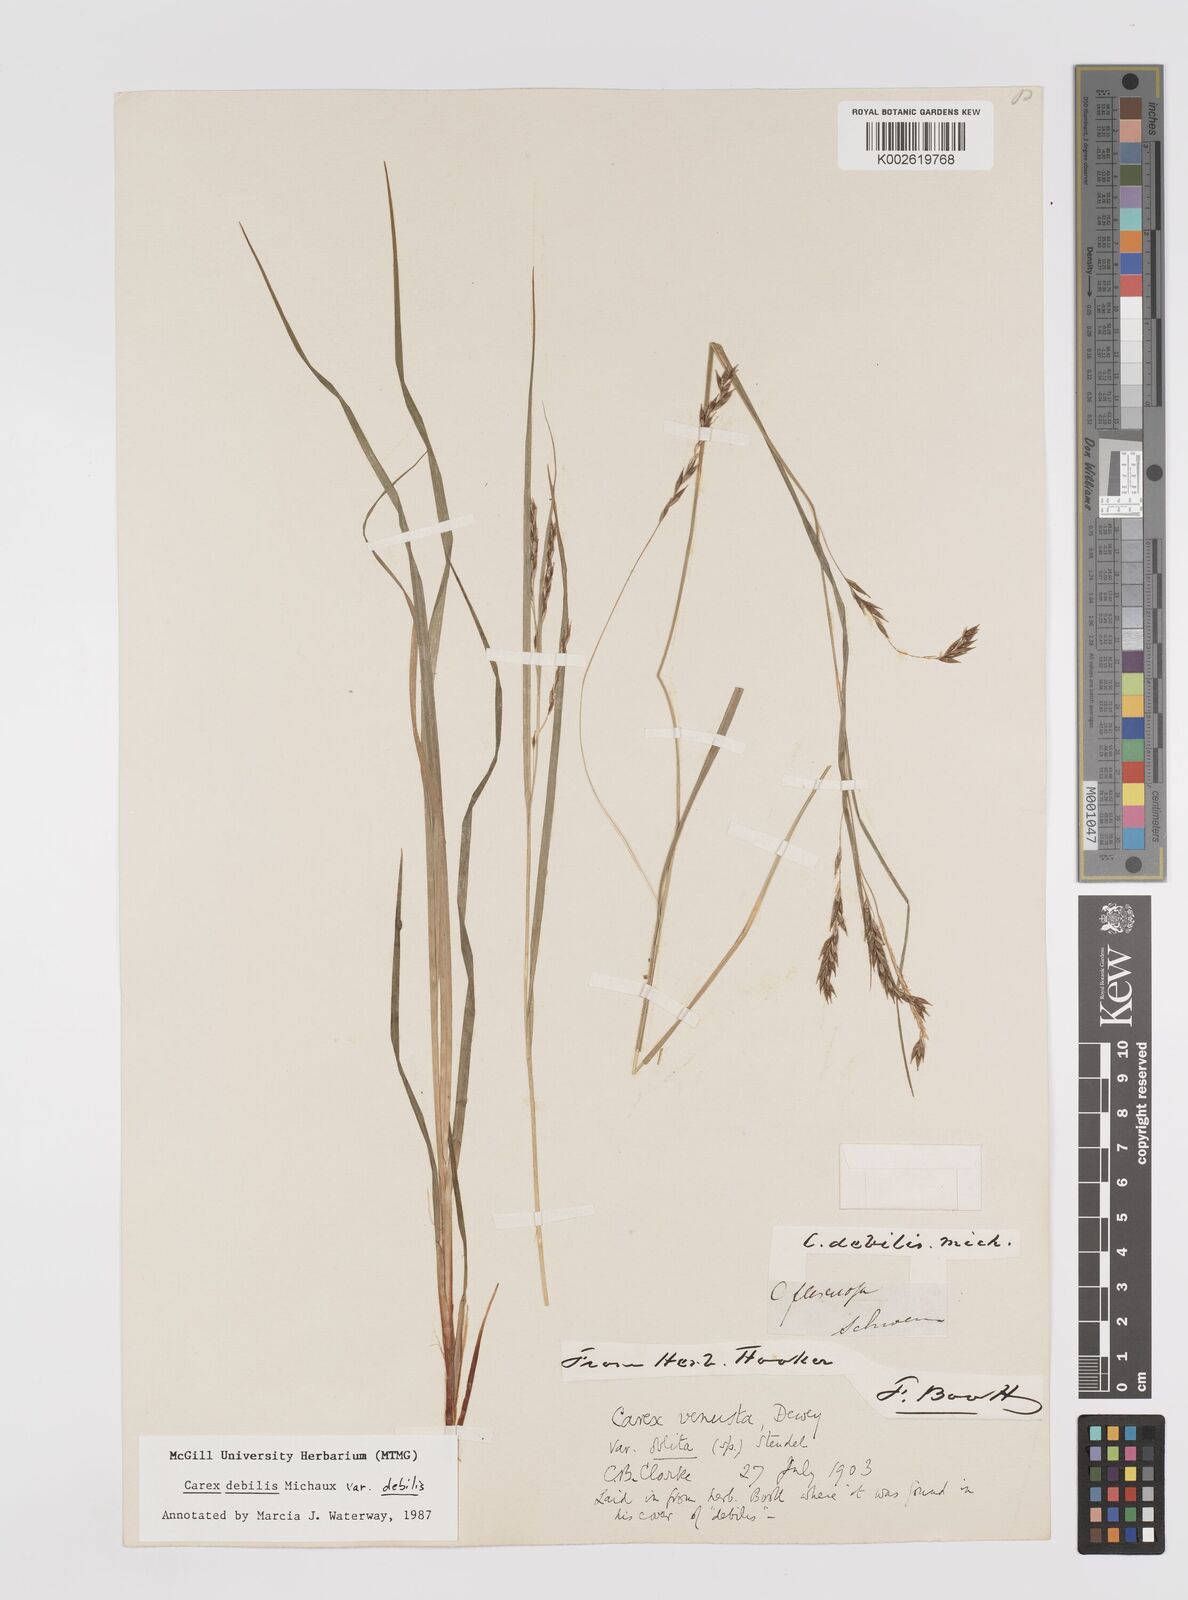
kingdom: Plantae
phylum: Tracheophyta
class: Liliopsida
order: Poales
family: Cyperaceae
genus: Carex
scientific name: Carex debilis
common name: White-edge sedge
